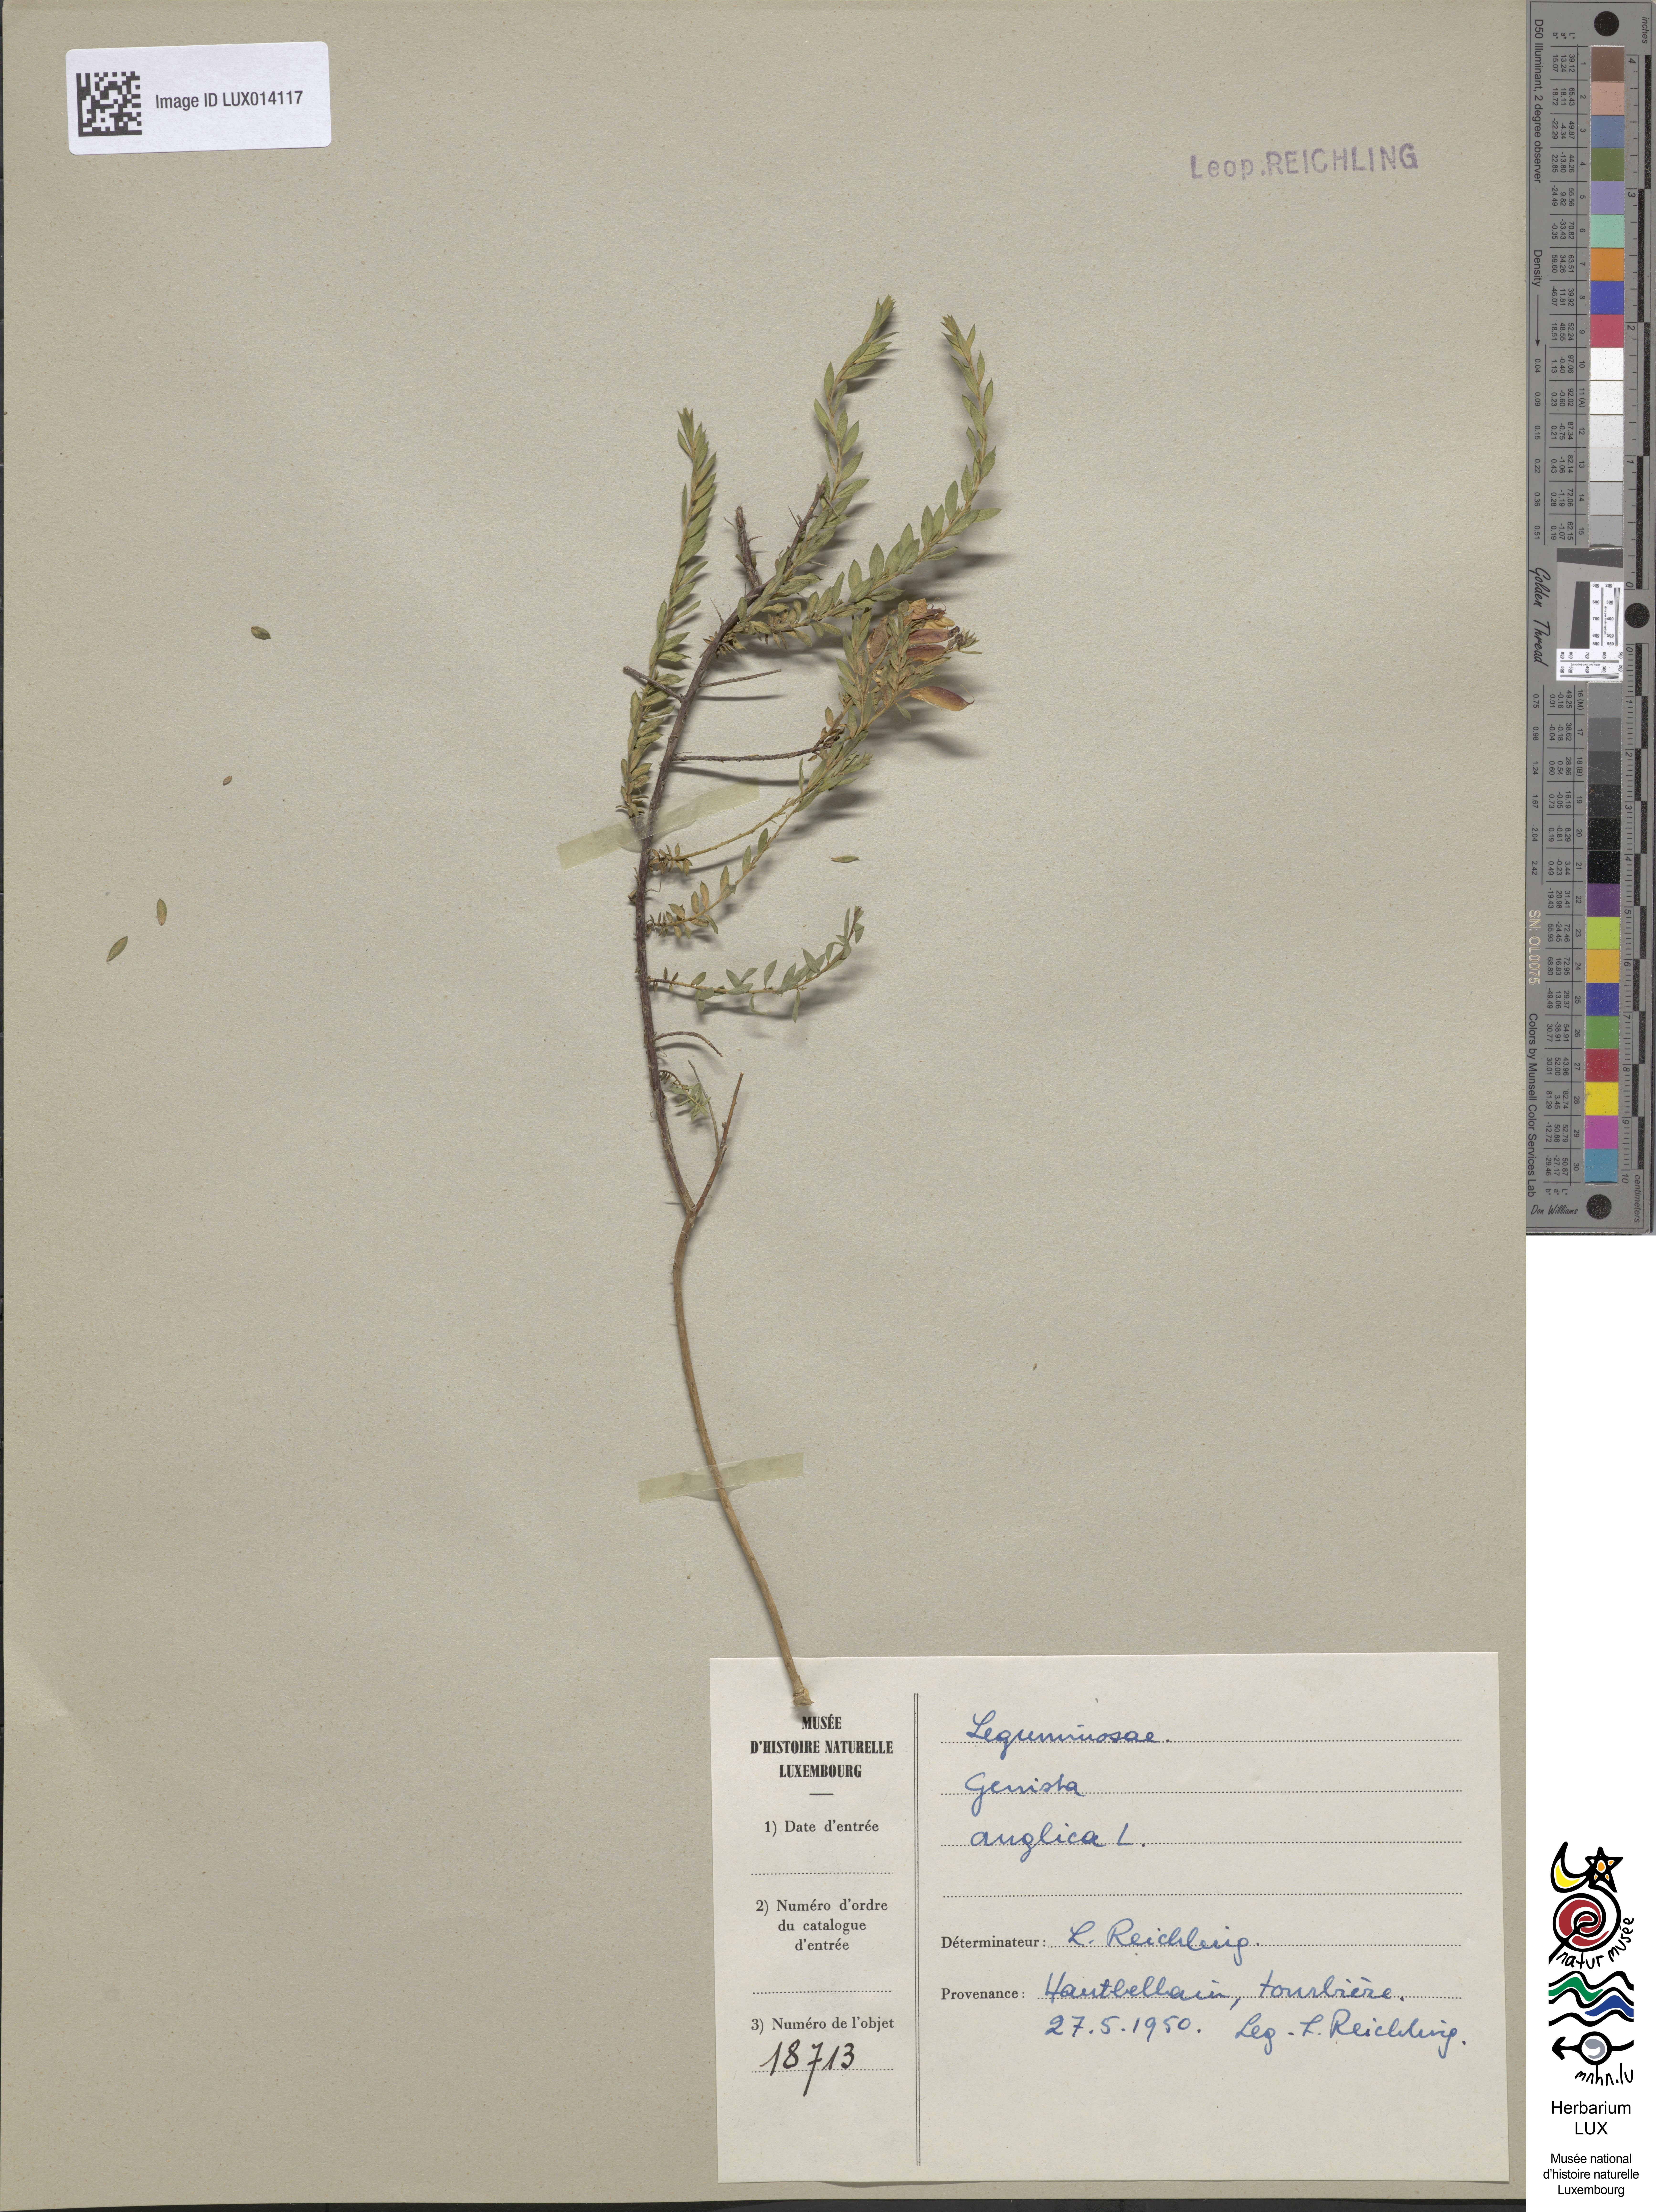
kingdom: Plantae
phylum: Tracheophyta
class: Magnoliopsida
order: Fabales
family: Fabaceae
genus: Genista
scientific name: Genista anglica
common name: Petty whin
